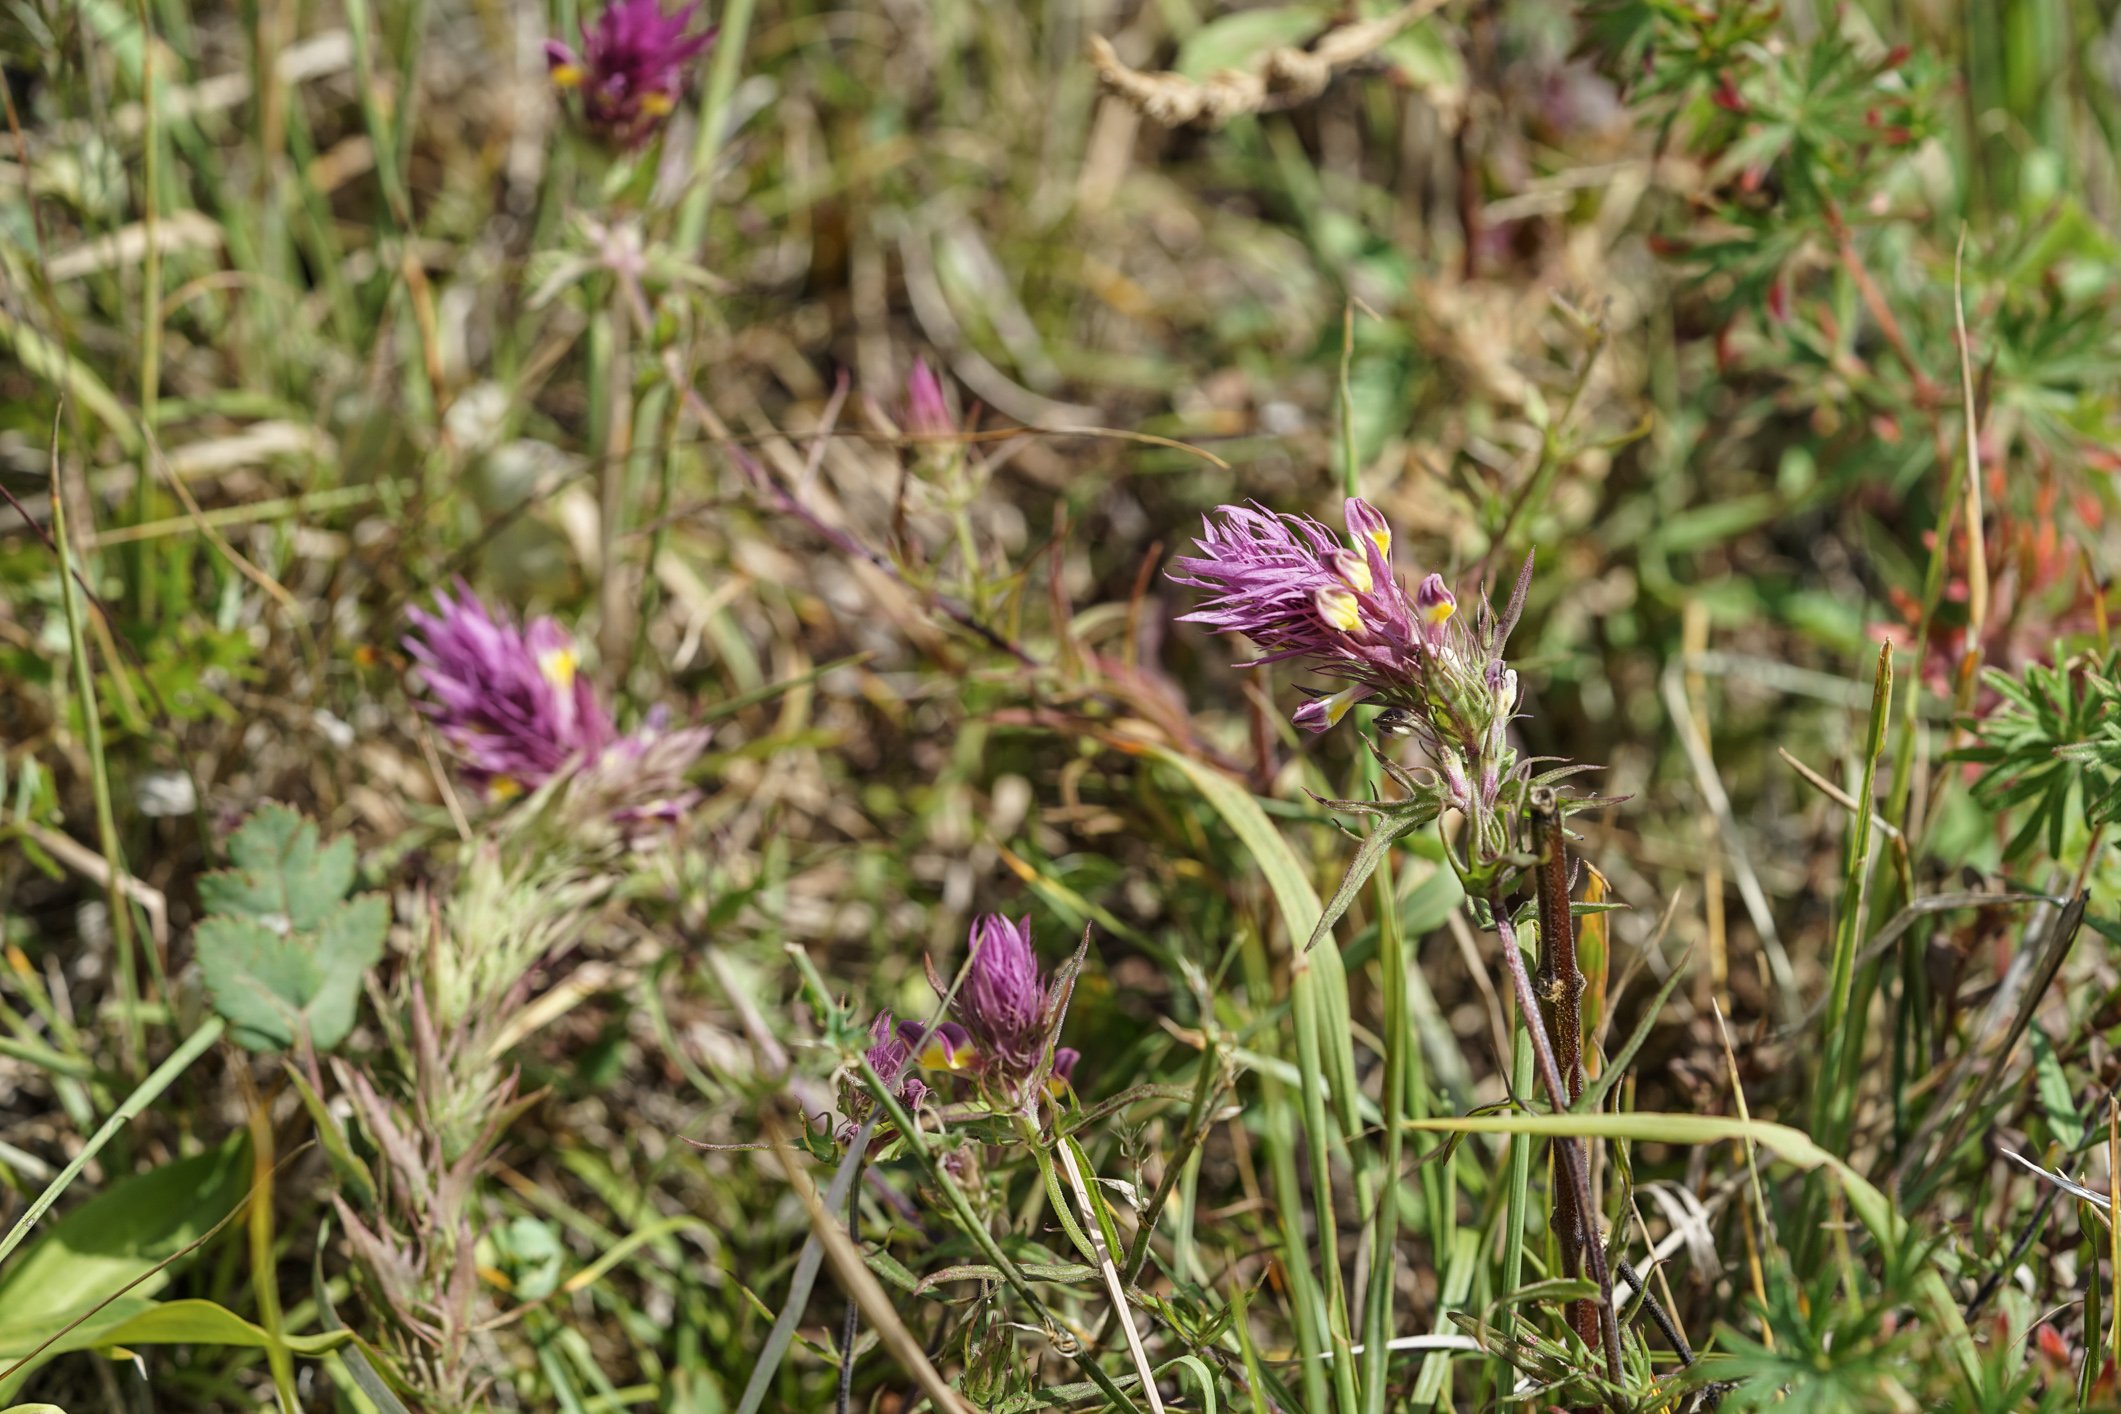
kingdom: Plantae
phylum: Tracheophyta
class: Magnoliopsida
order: Lamiales
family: Orobanchaceae
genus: Melampyrum
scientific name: Melampyrum arvense
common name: Field cow-wheat
